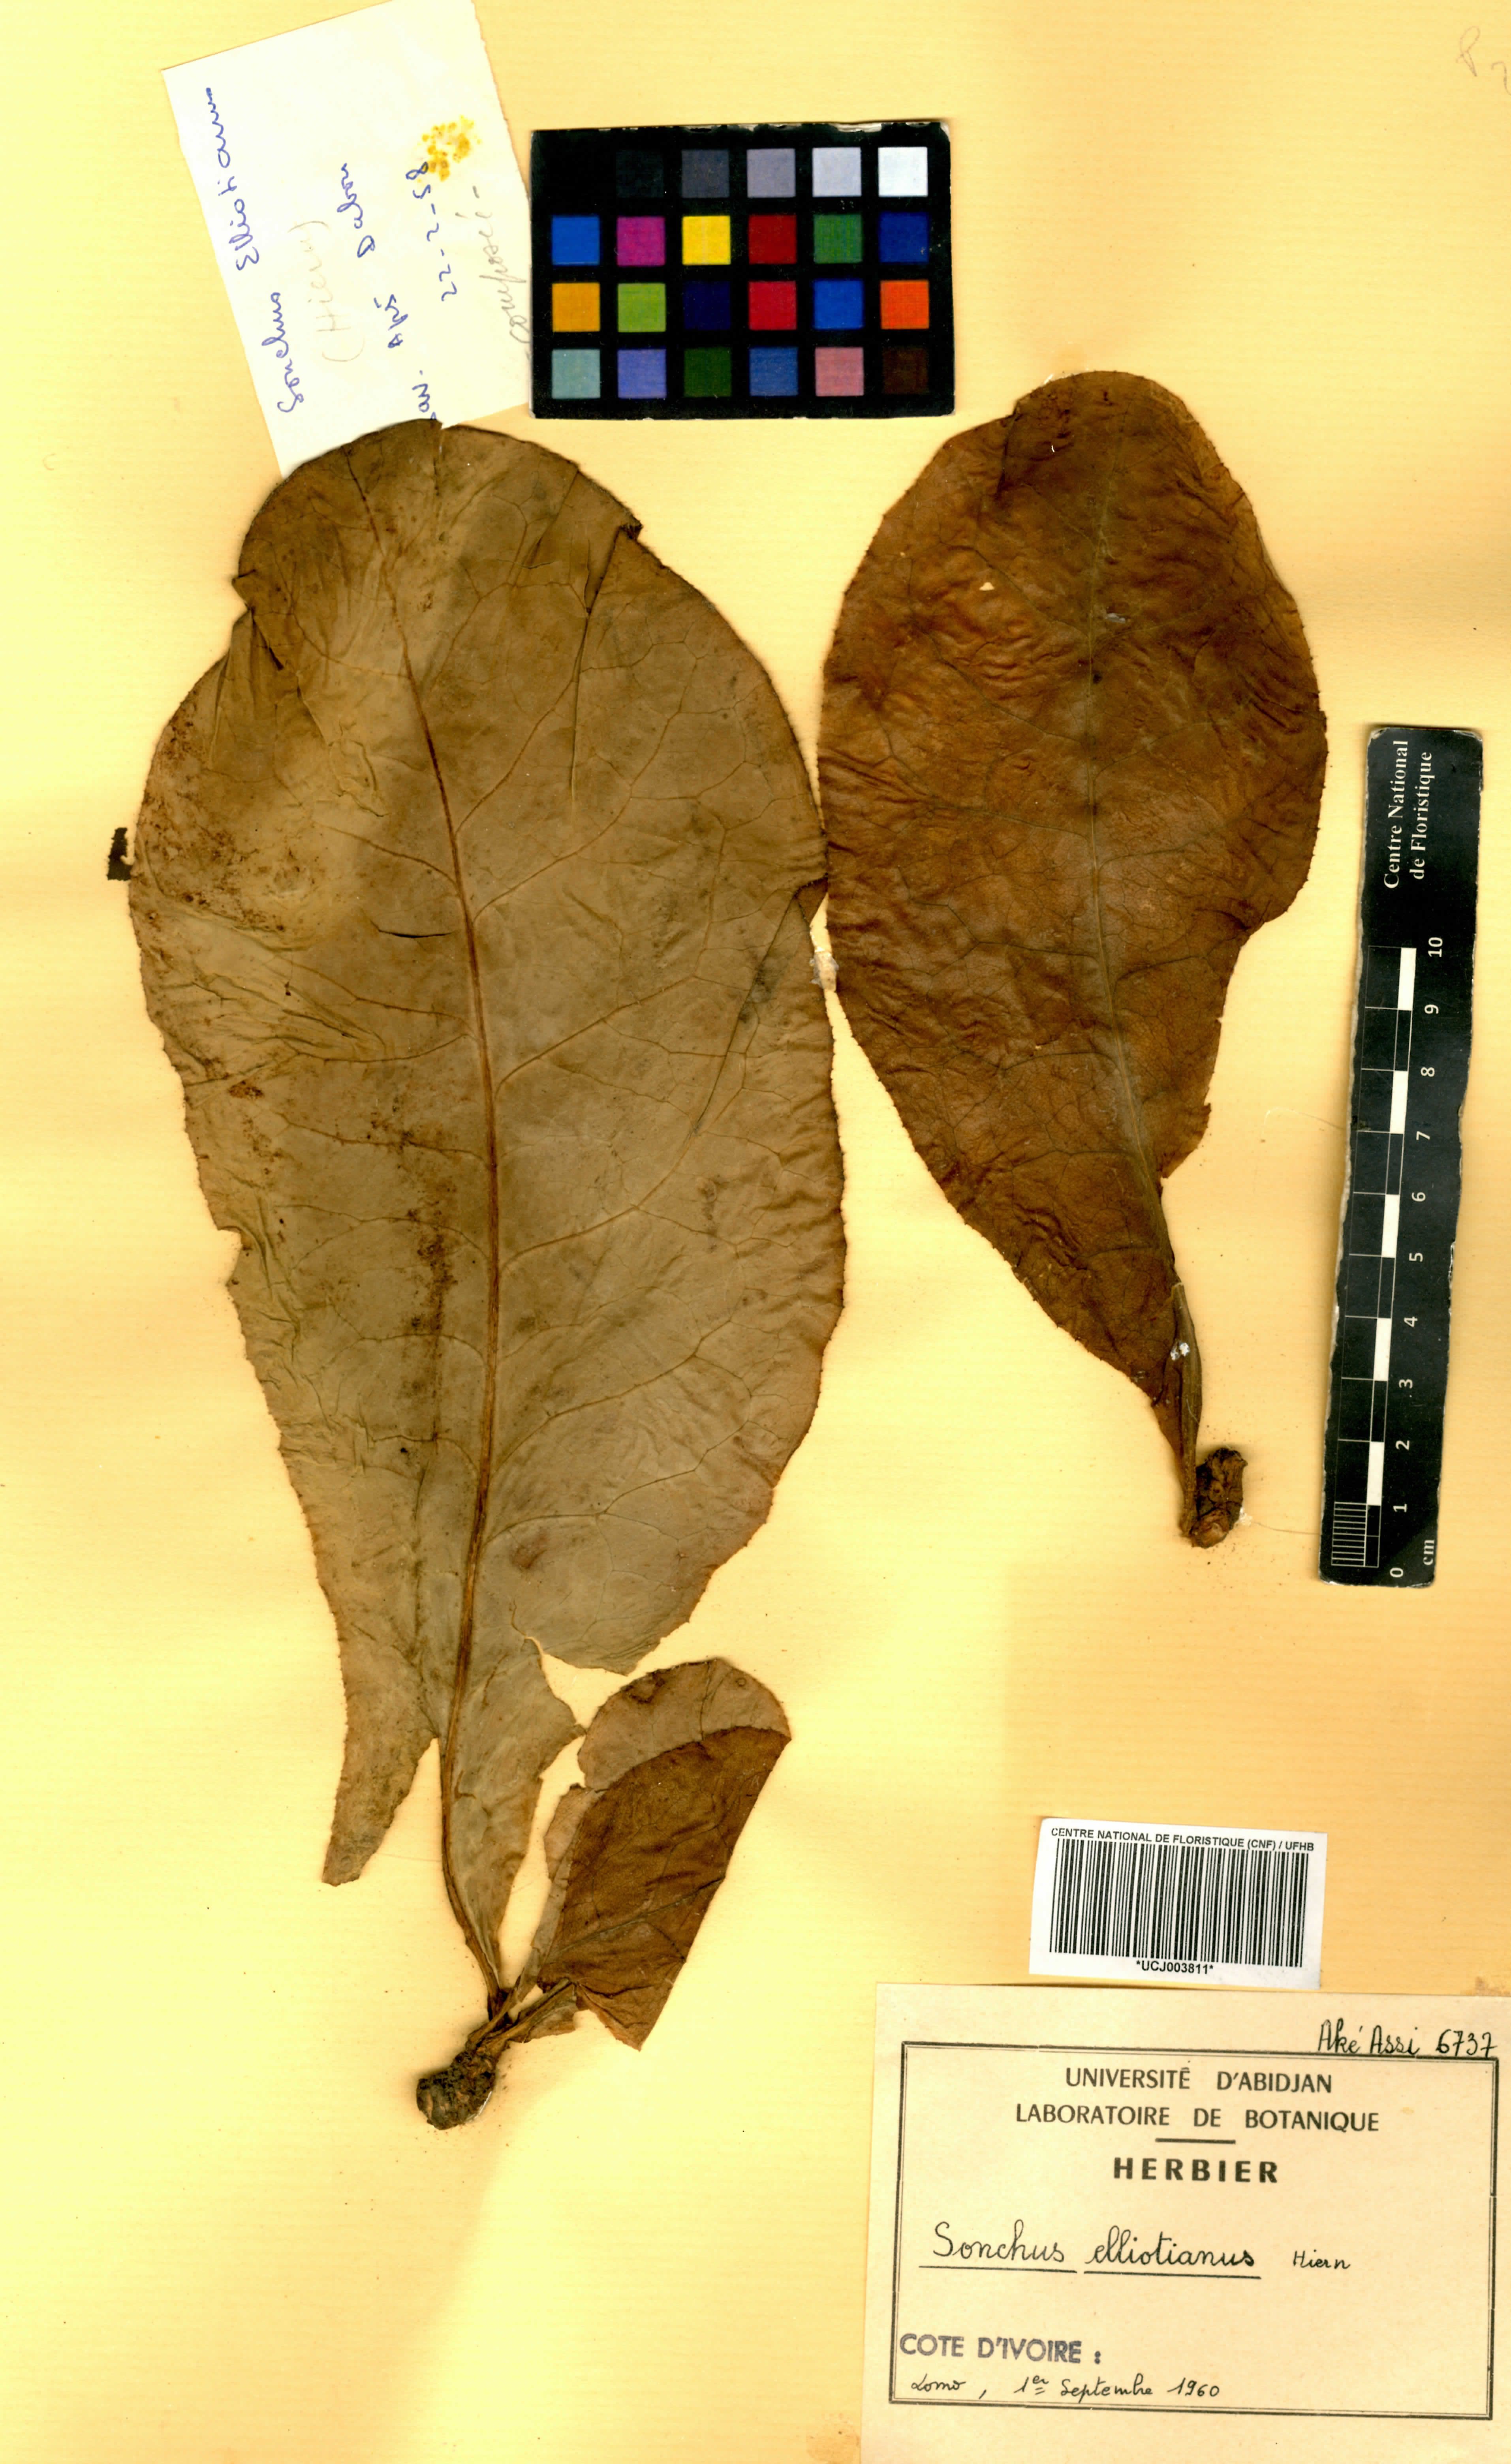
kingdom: Plantae
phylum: Tracheophyta
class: Magnoliopsida
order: Asterales
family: Asteraceae
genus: Launaea
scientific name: Launaea nana
